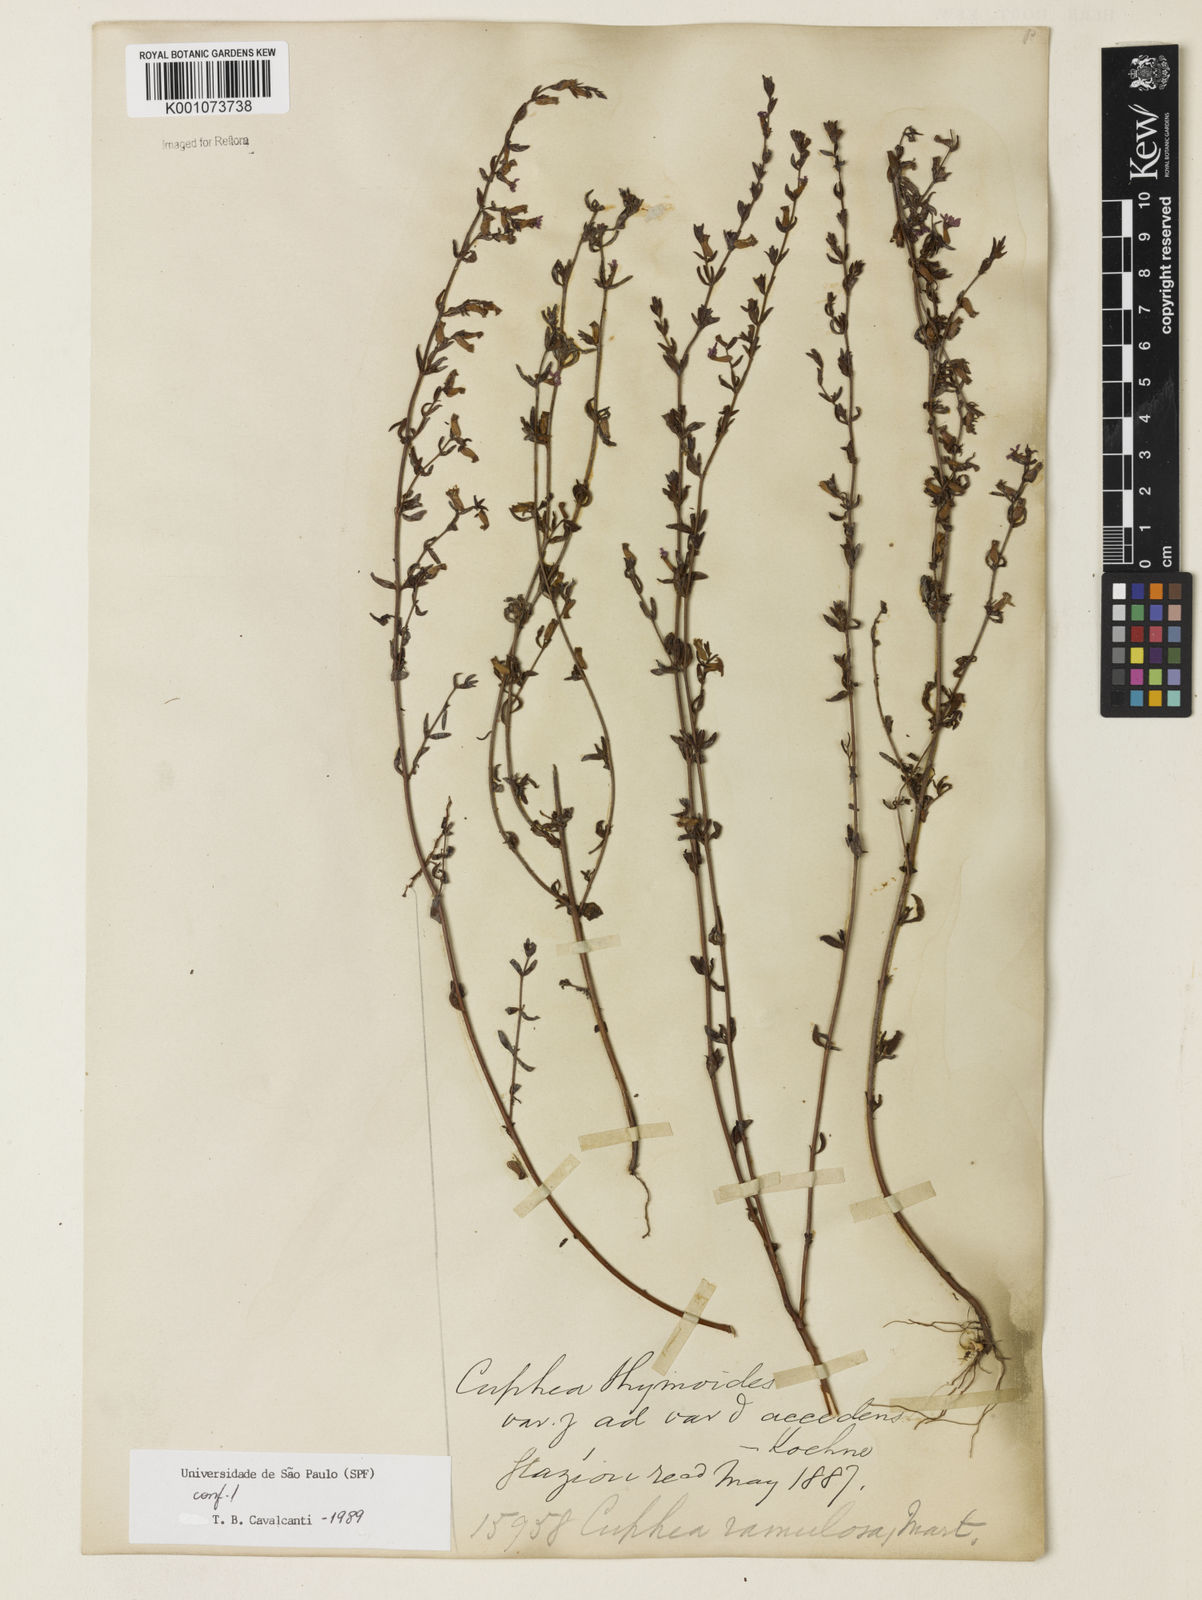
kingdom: Plantae
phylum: Tracheophyta
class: Magnoliopsida
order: Myrtales
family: Lythraceae
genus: Cuphea
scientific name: Cuphea thymoides
